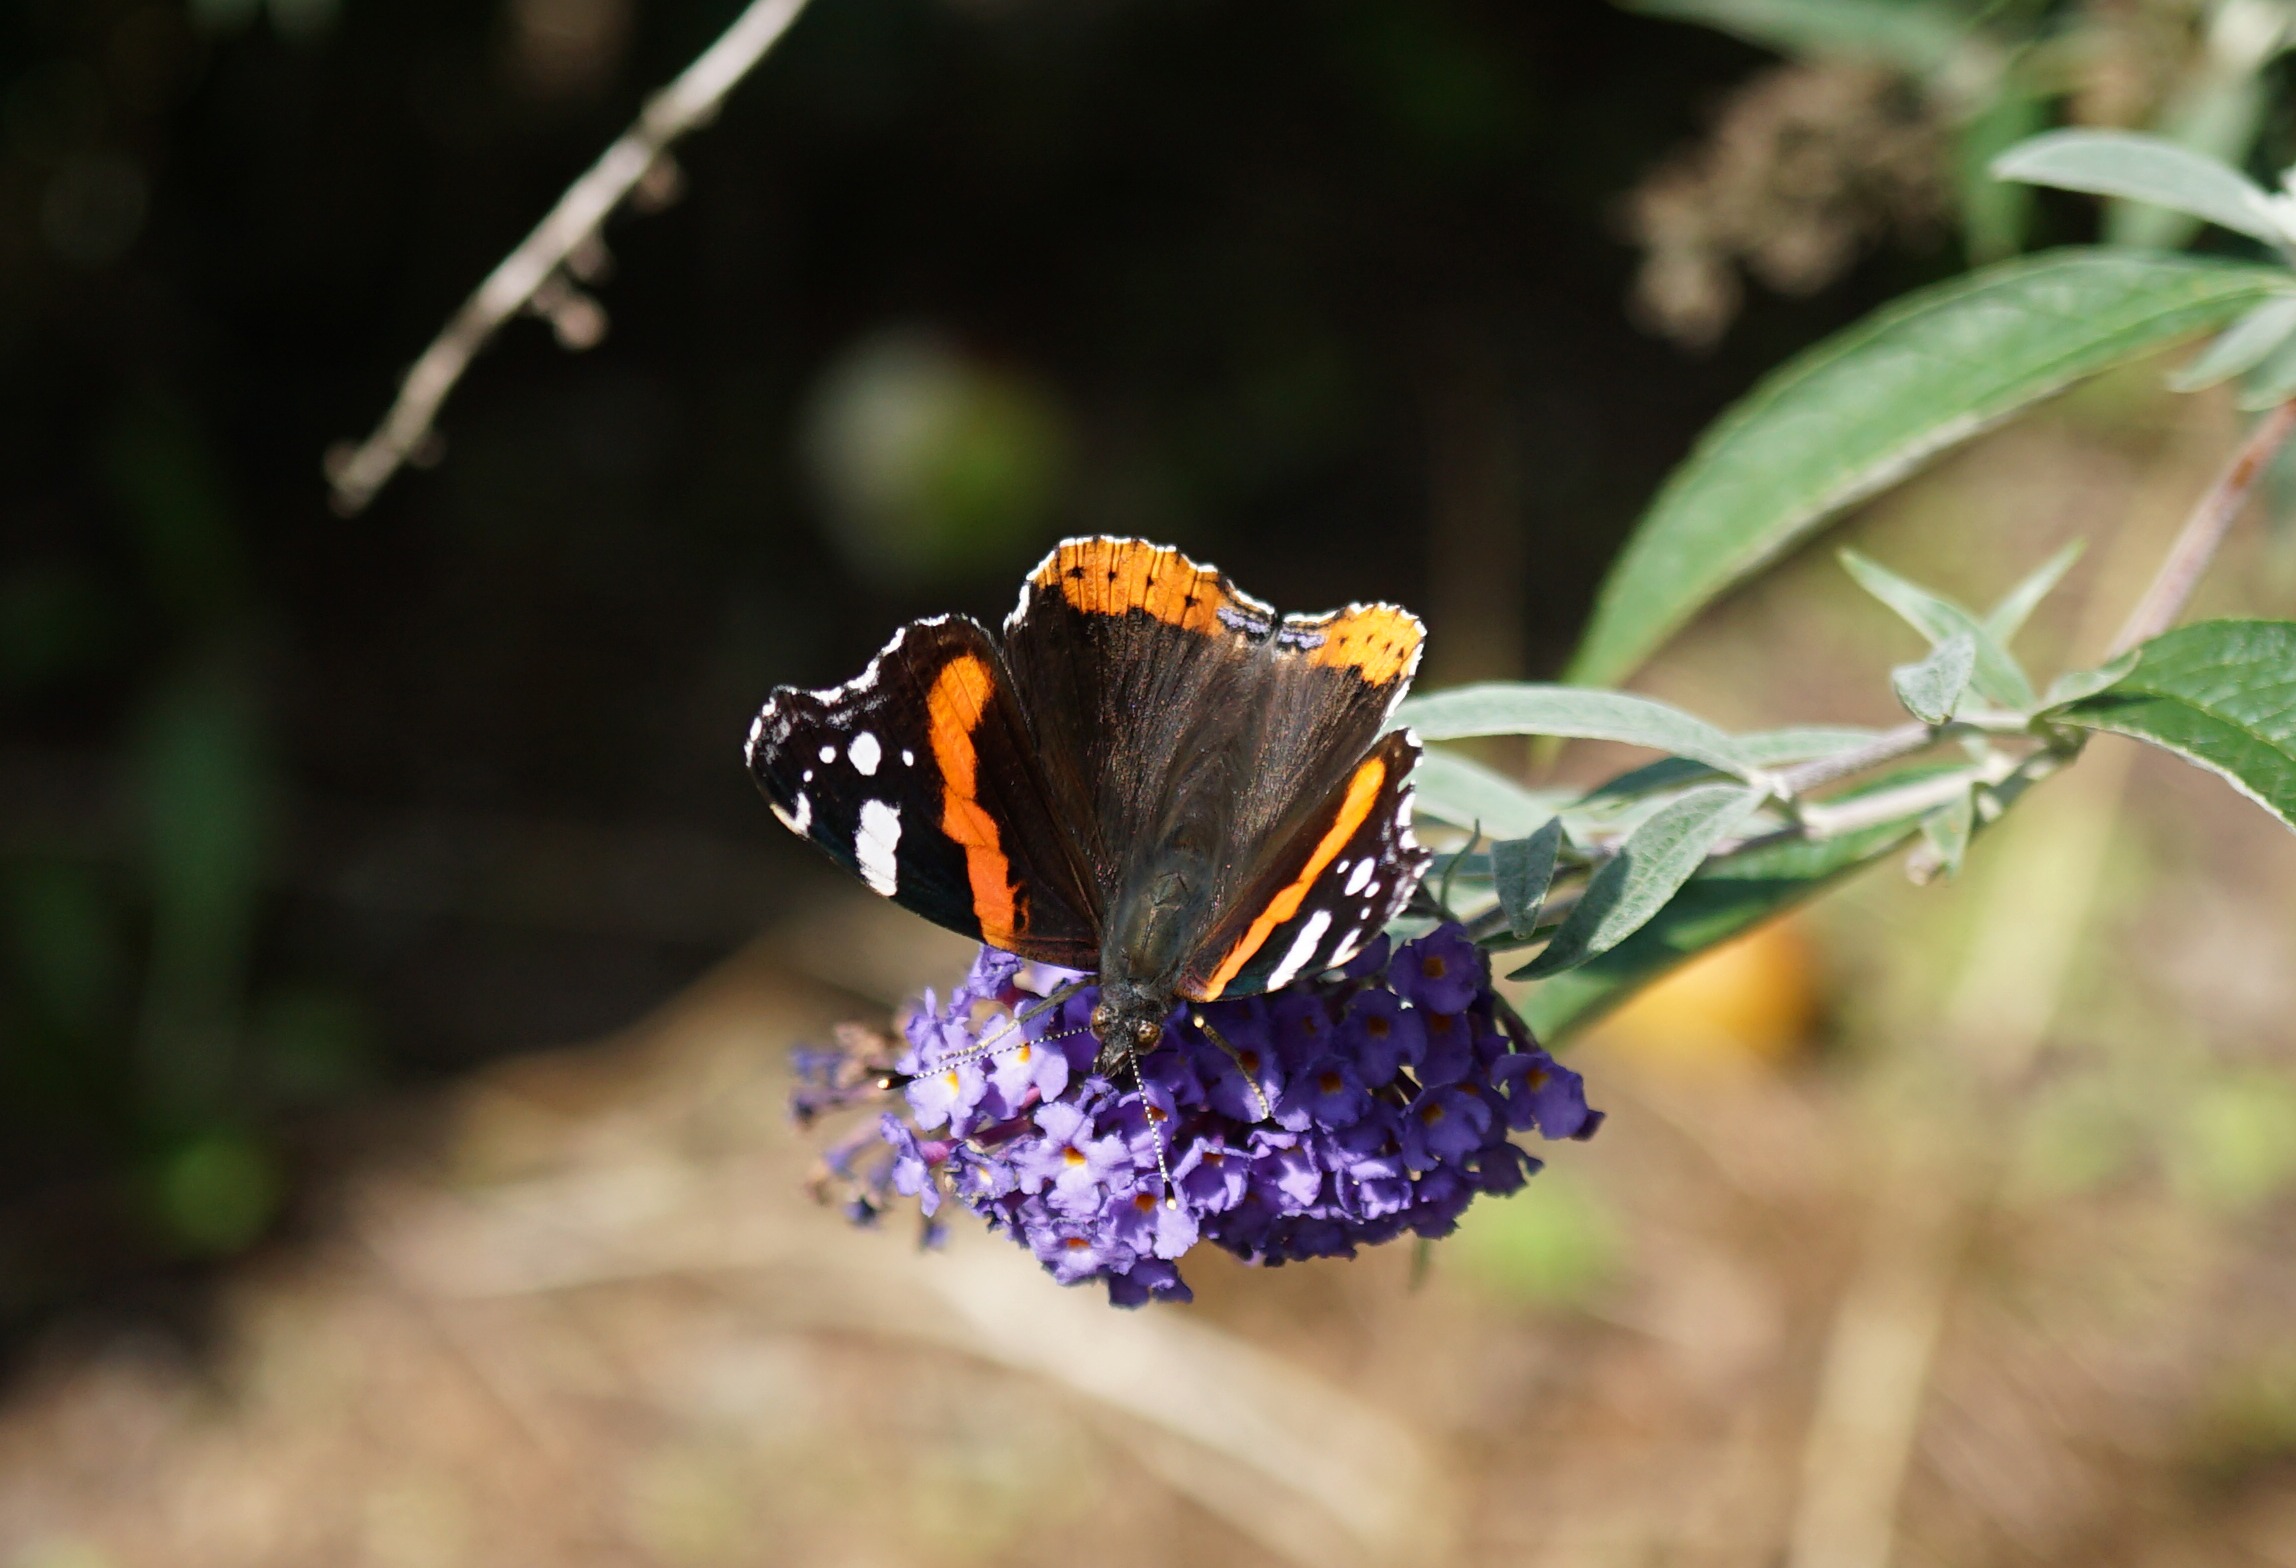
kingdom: Animalia
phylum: Arthropoda
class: Insecta
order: Lepidoptera
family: Nymphalidae
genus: Vanessa
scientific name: Vanessa atalanta
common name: Admiral
